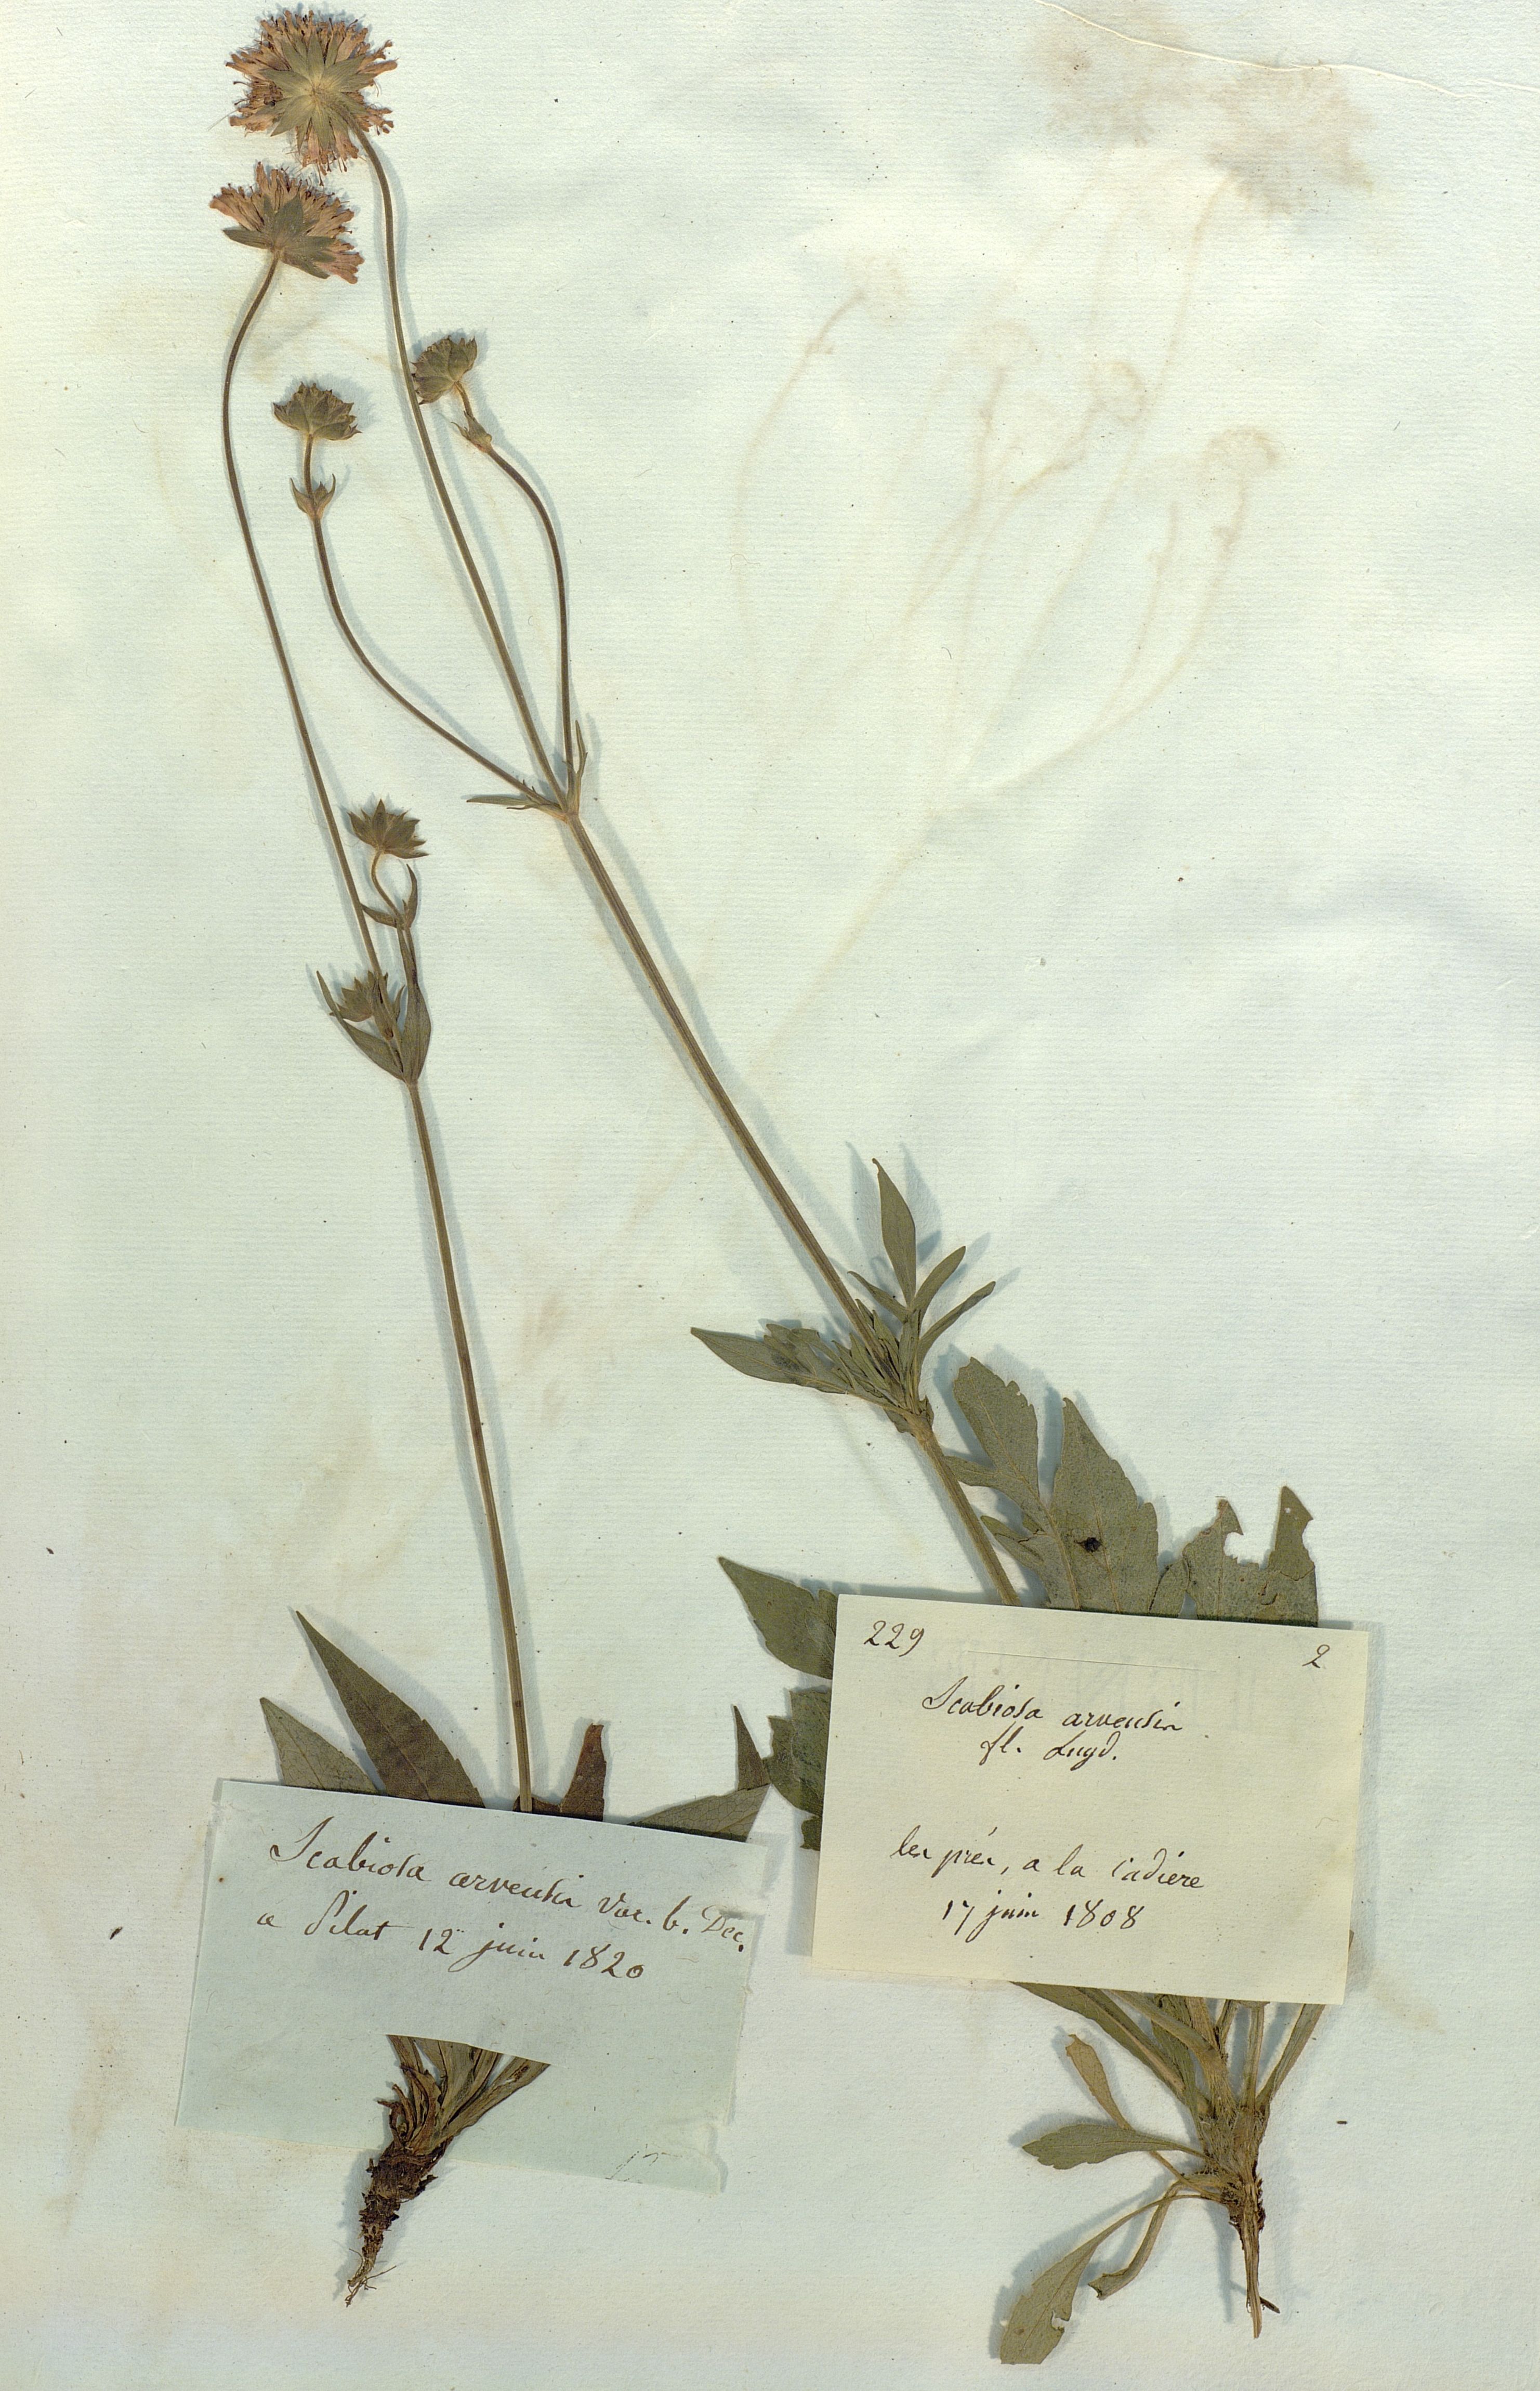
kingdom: Plantae
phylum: Tracheophyta
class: Magnoliopsida
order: Dipsacales
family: Caprifoliaceae
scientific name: Caprifoliaceae
